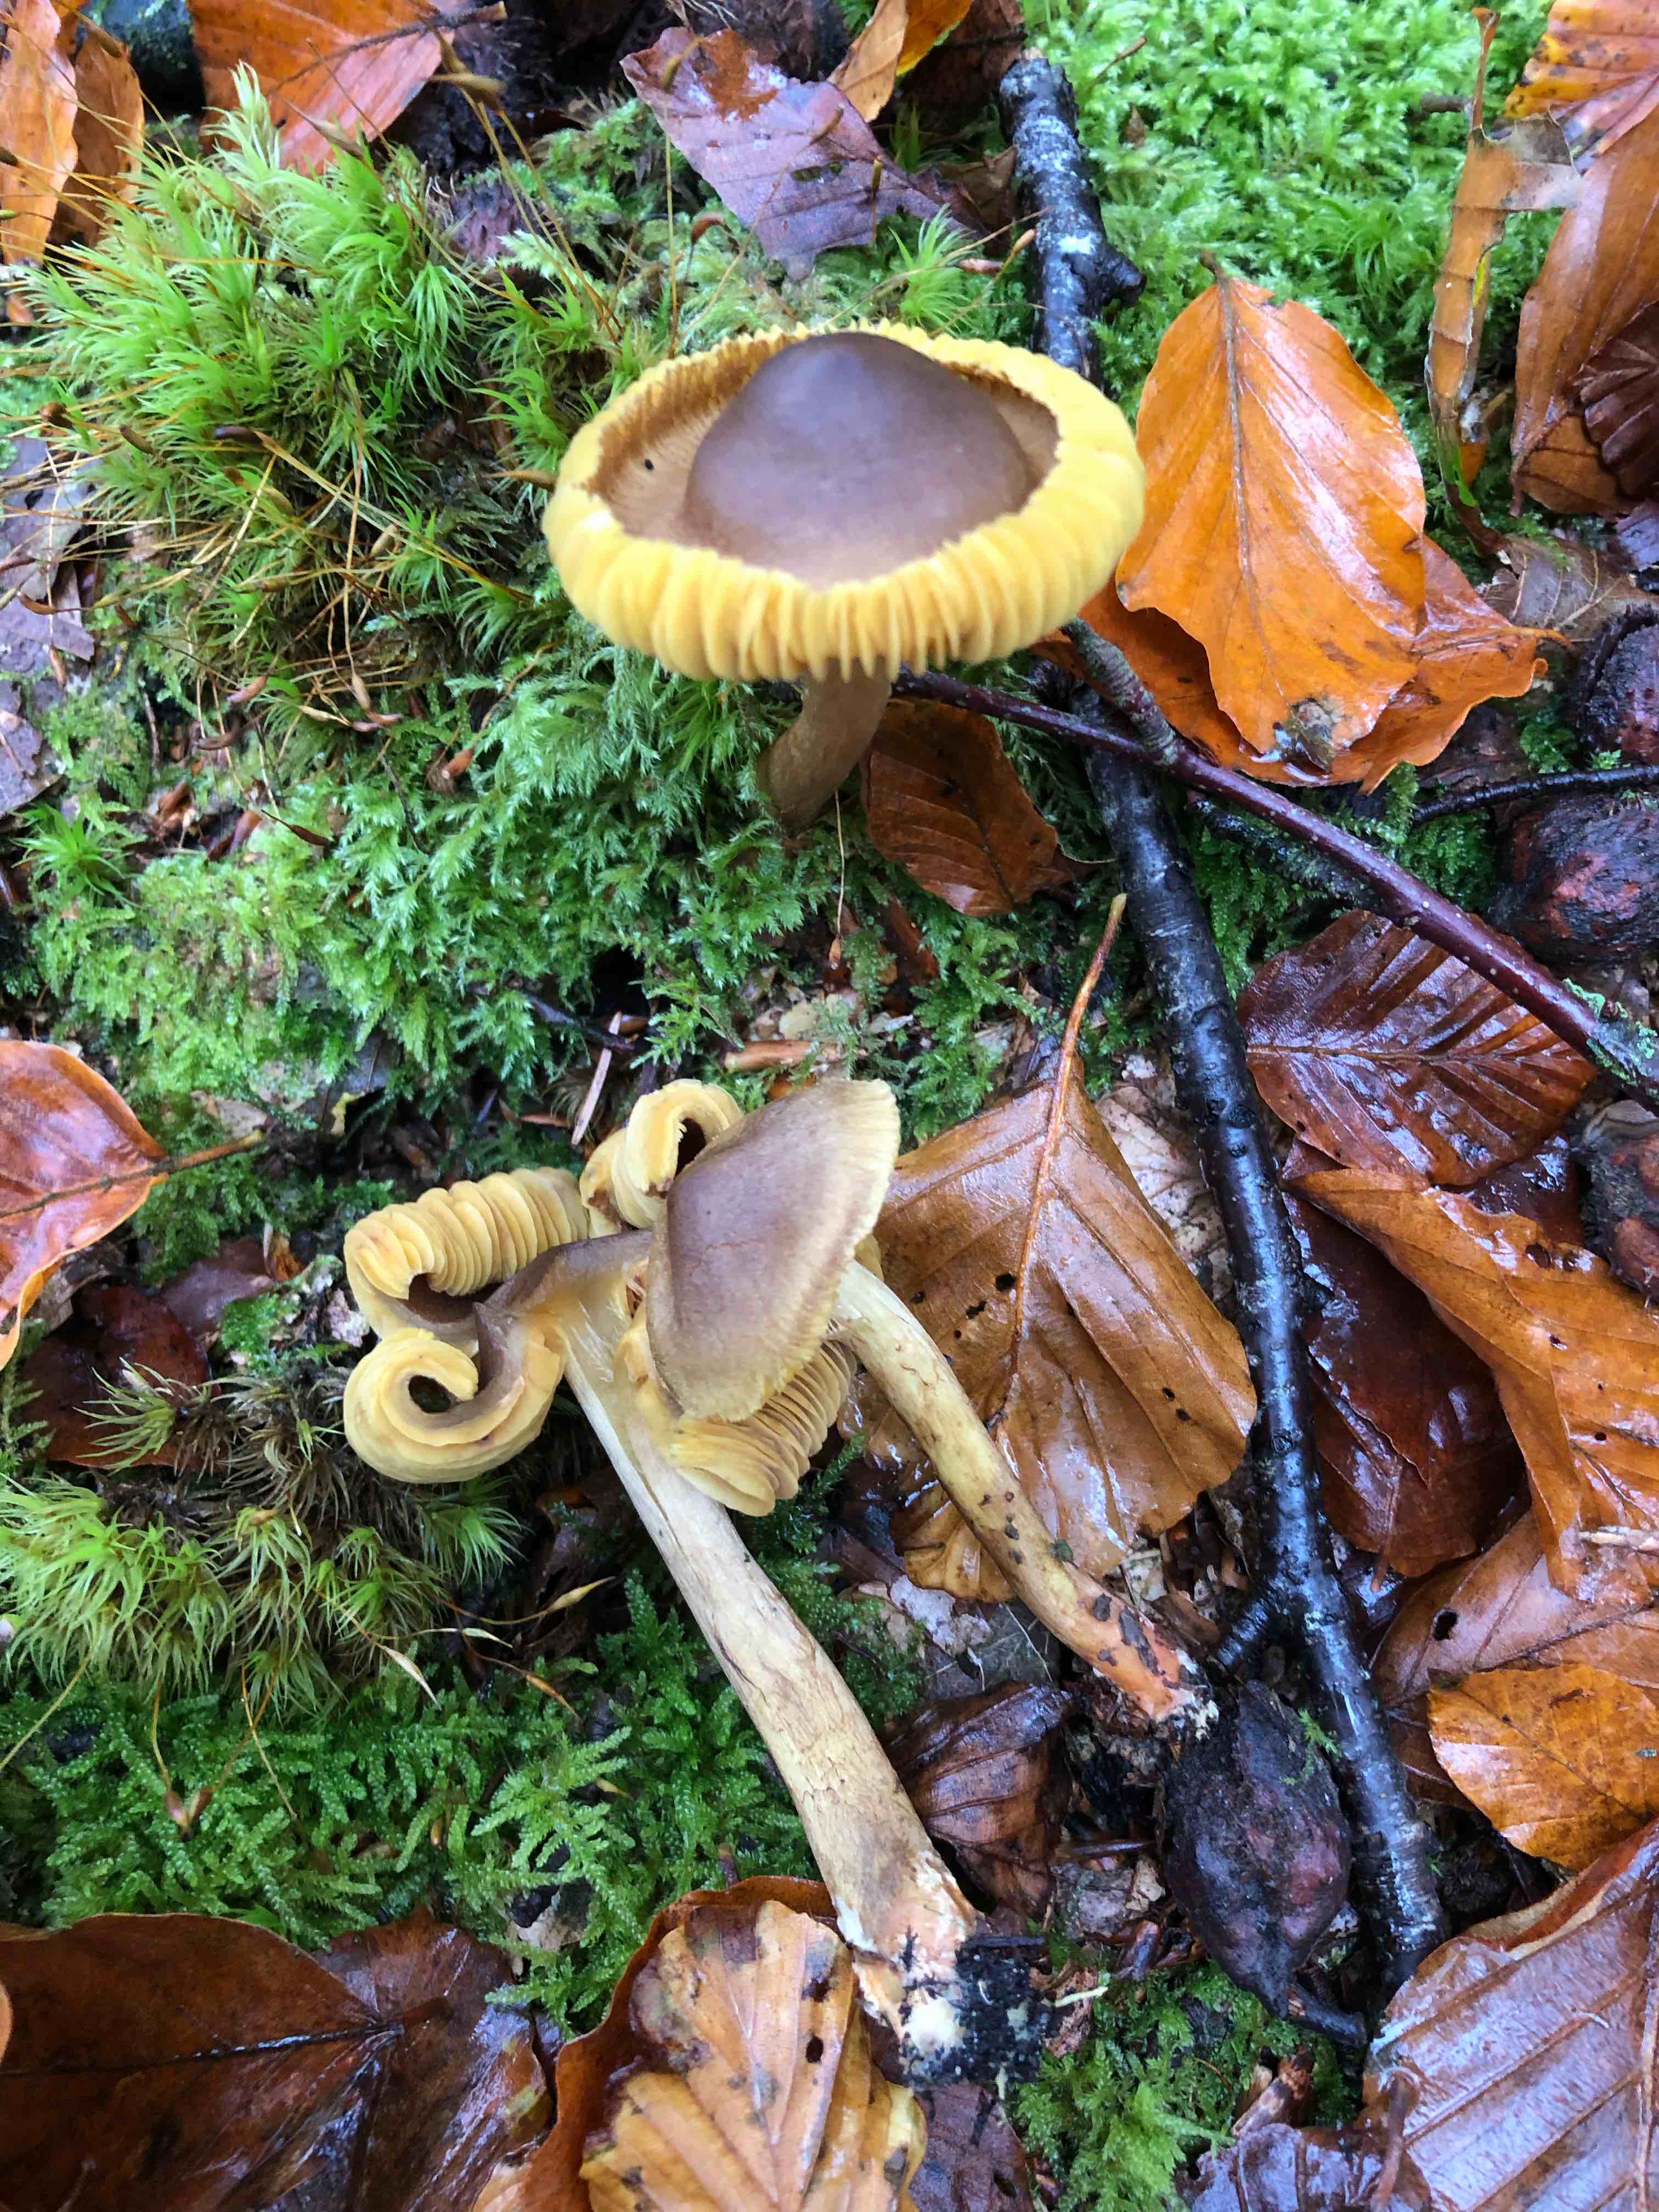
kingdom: Fungi
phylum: Basidiomycota
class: Agaricomycetes
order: Agaricales
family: Cortinariaceae
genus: Cortinarius
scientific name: Cortinarius
